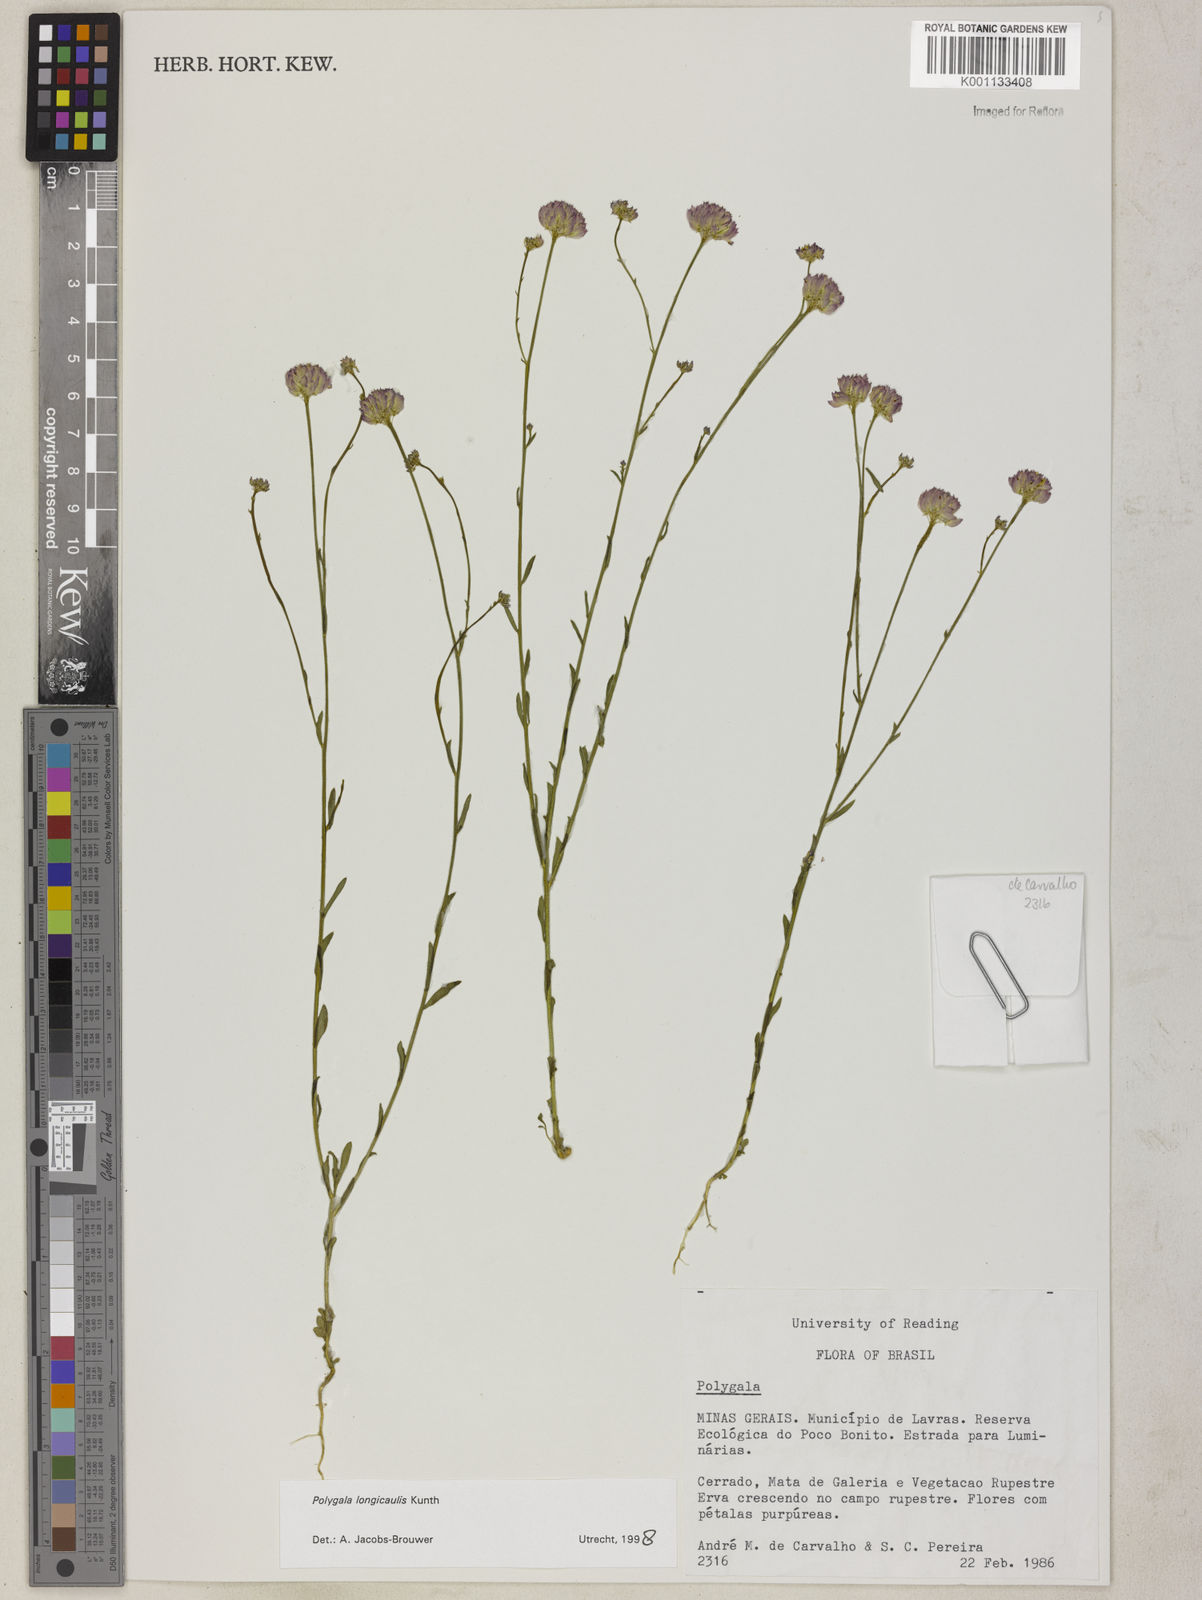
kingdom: Plantae
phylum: Tracheophyta
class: Magnoliopsida
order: Fabales
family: Polygalaceae
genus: Polygala
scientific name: Polygala longicaulis
